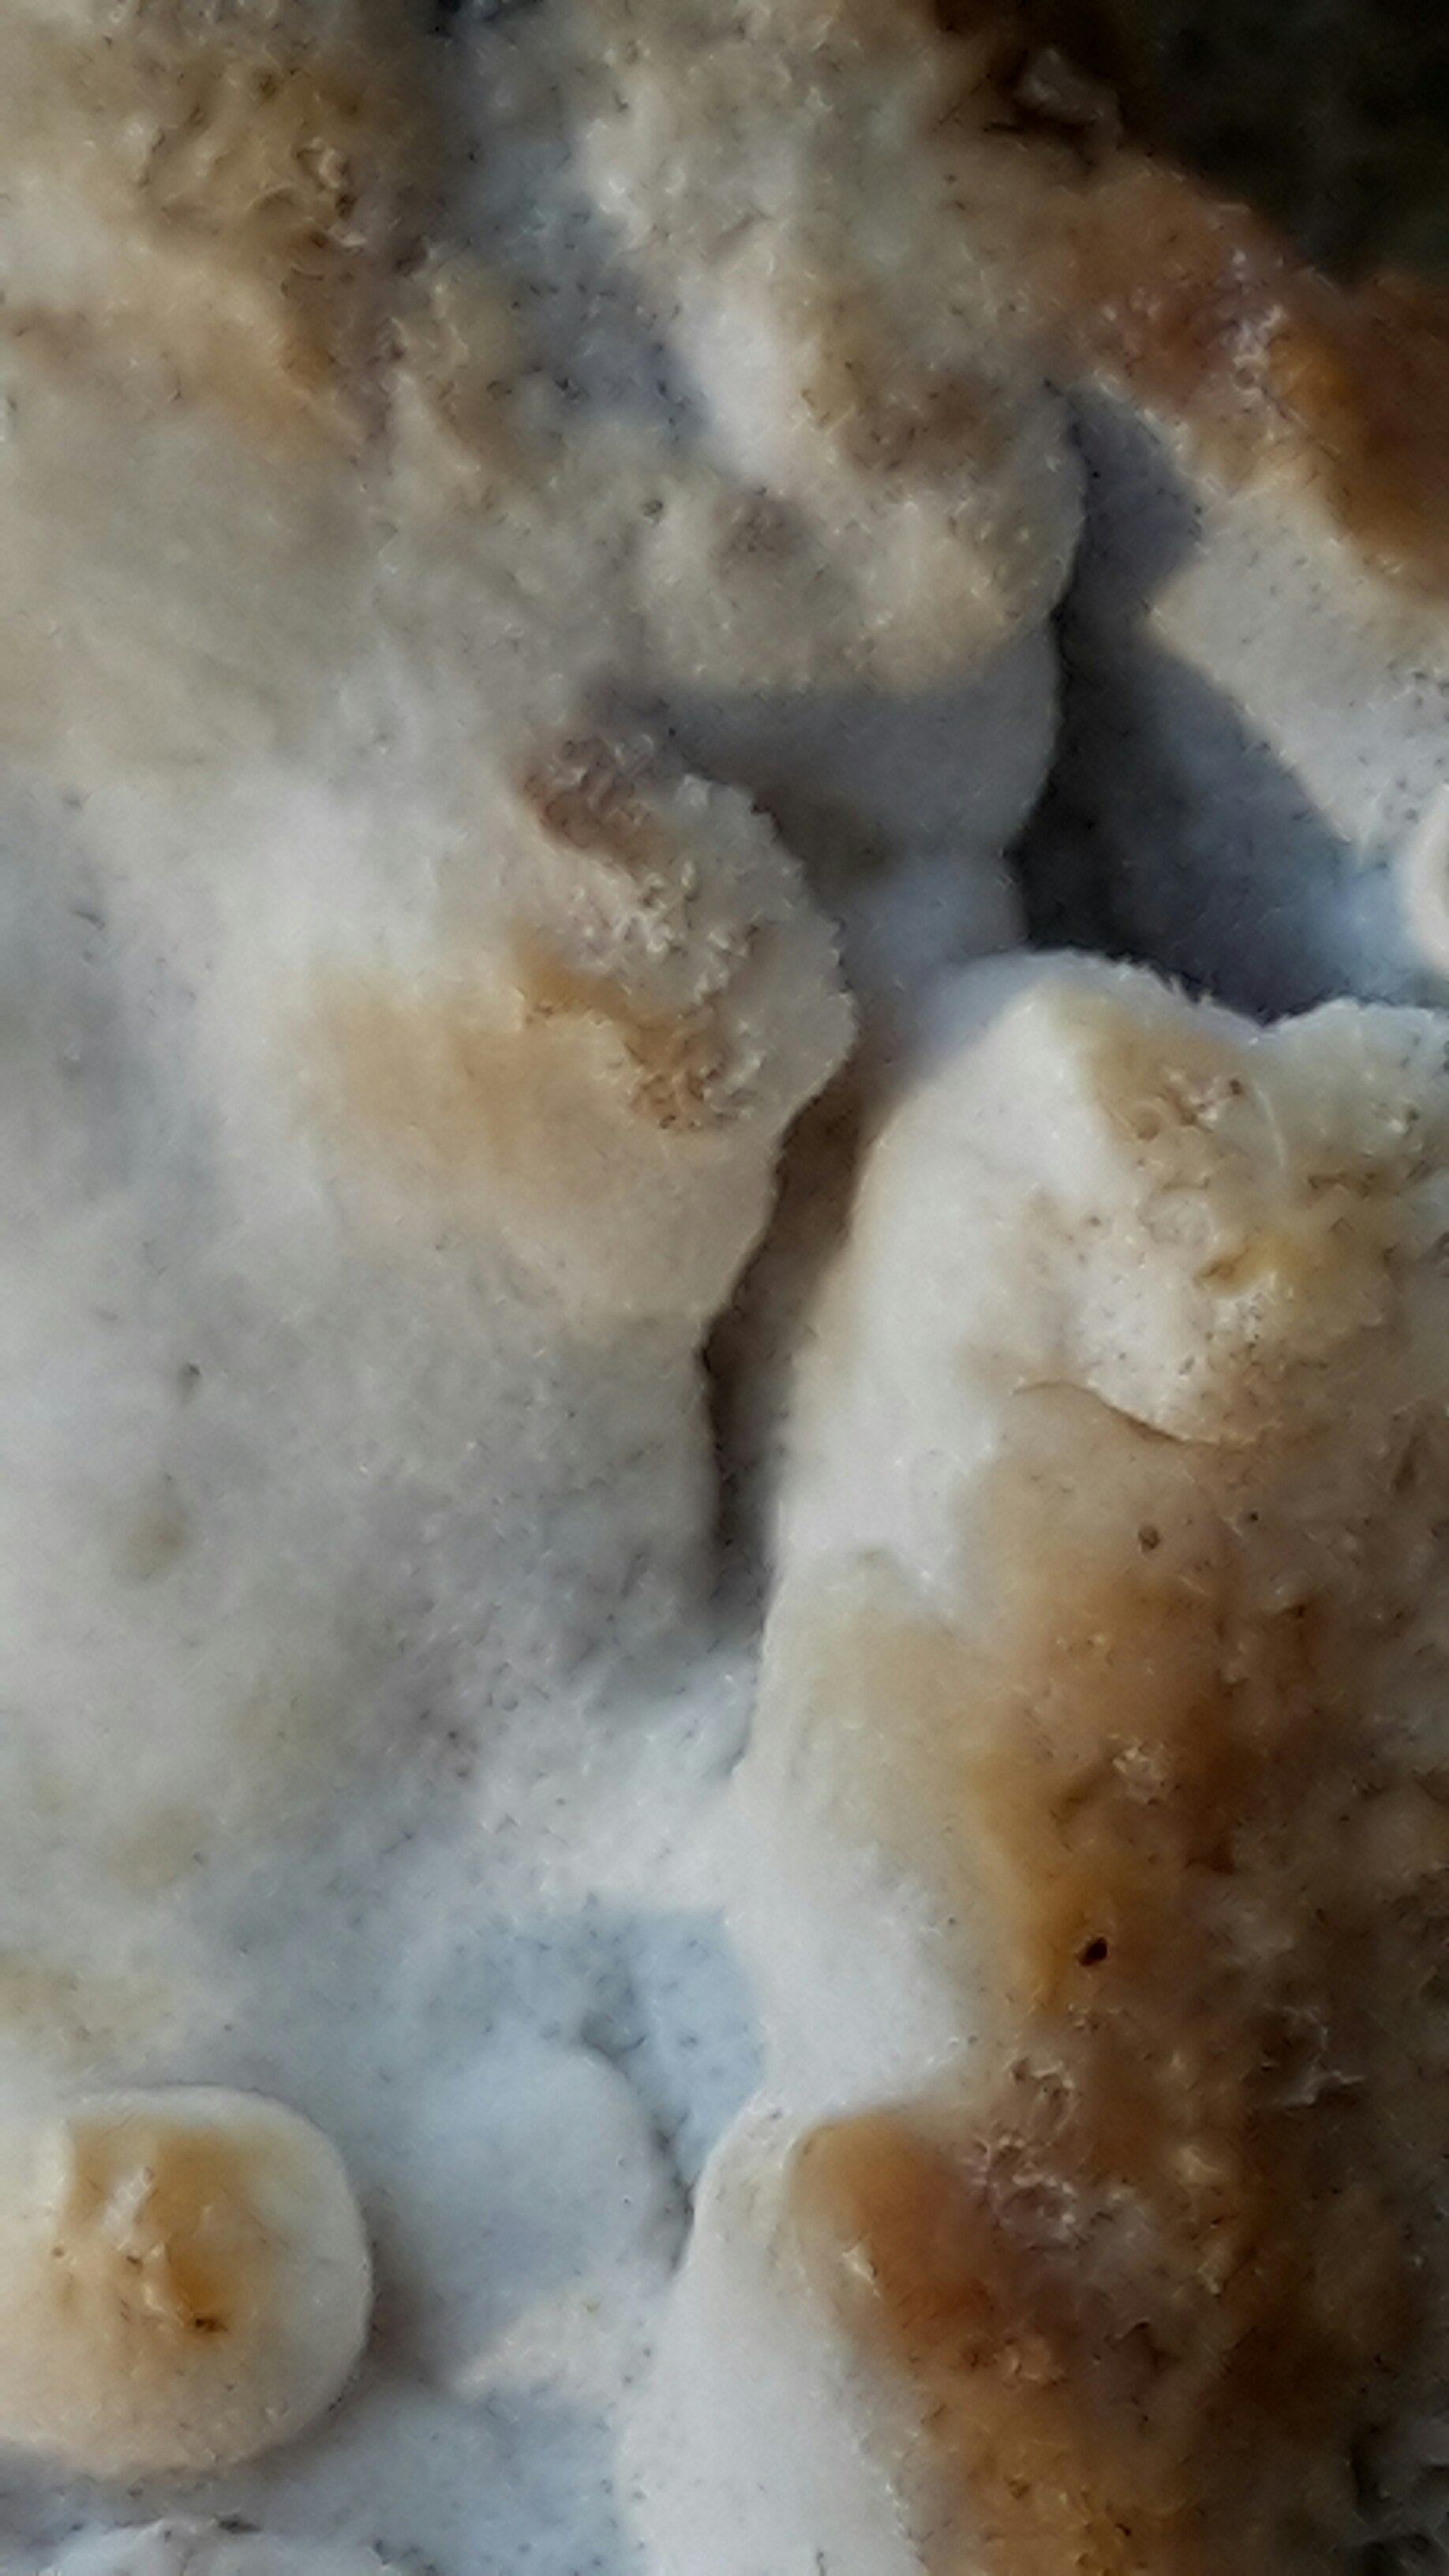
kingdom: Fungi
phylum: Basidiomycota
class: Agaricomycetes
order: Polyporales
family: Incrustoporiaceae
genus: Skeletocutis
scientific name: Skeletocutis nemoralis
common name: stor krystalporesvamp
